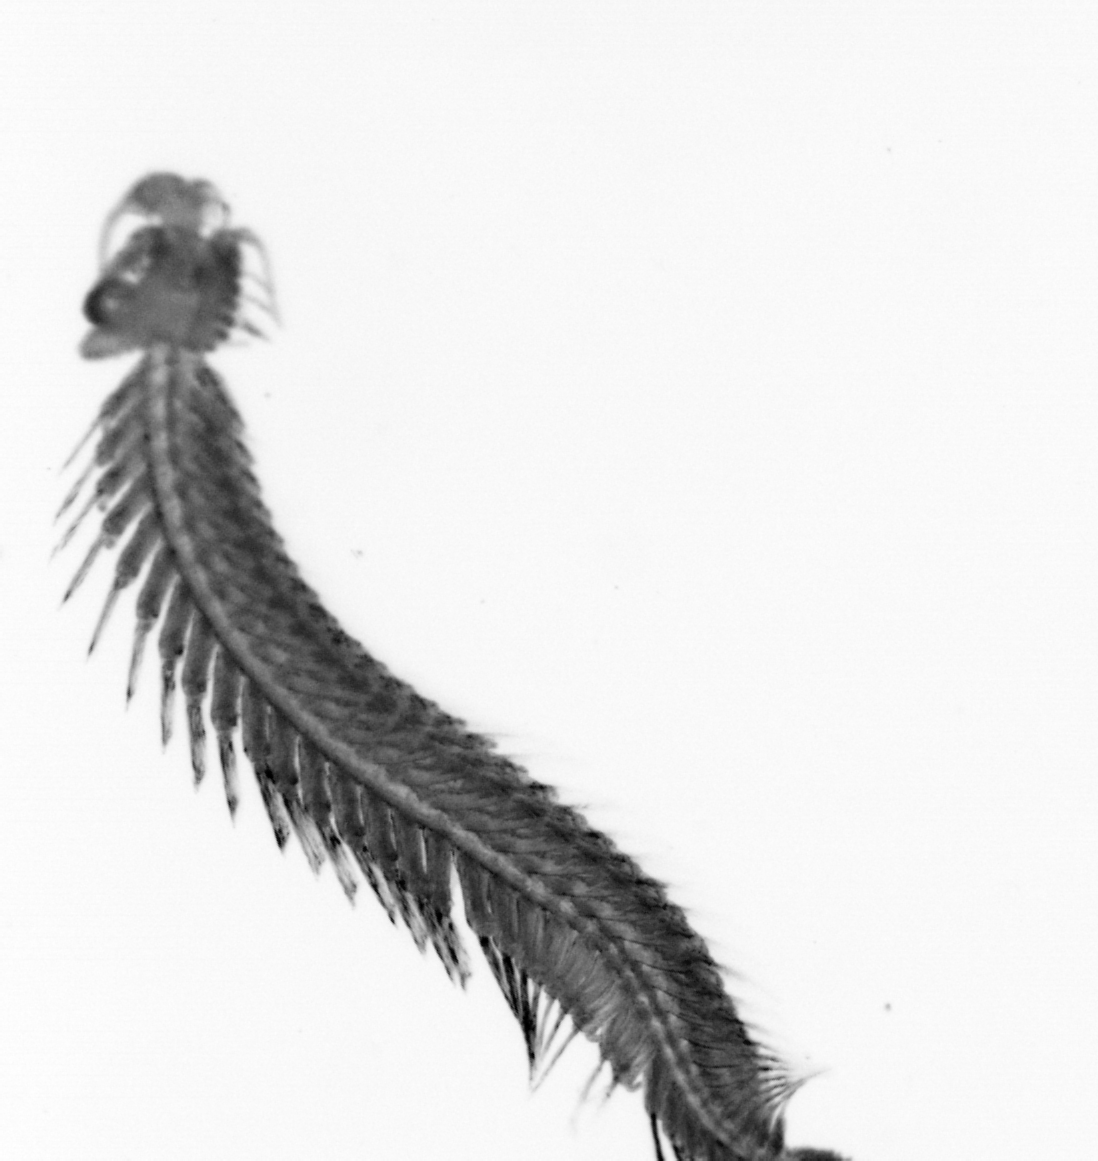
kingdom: Animalia
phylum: Annelida
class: Polychaeta
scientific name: Polychaeta
